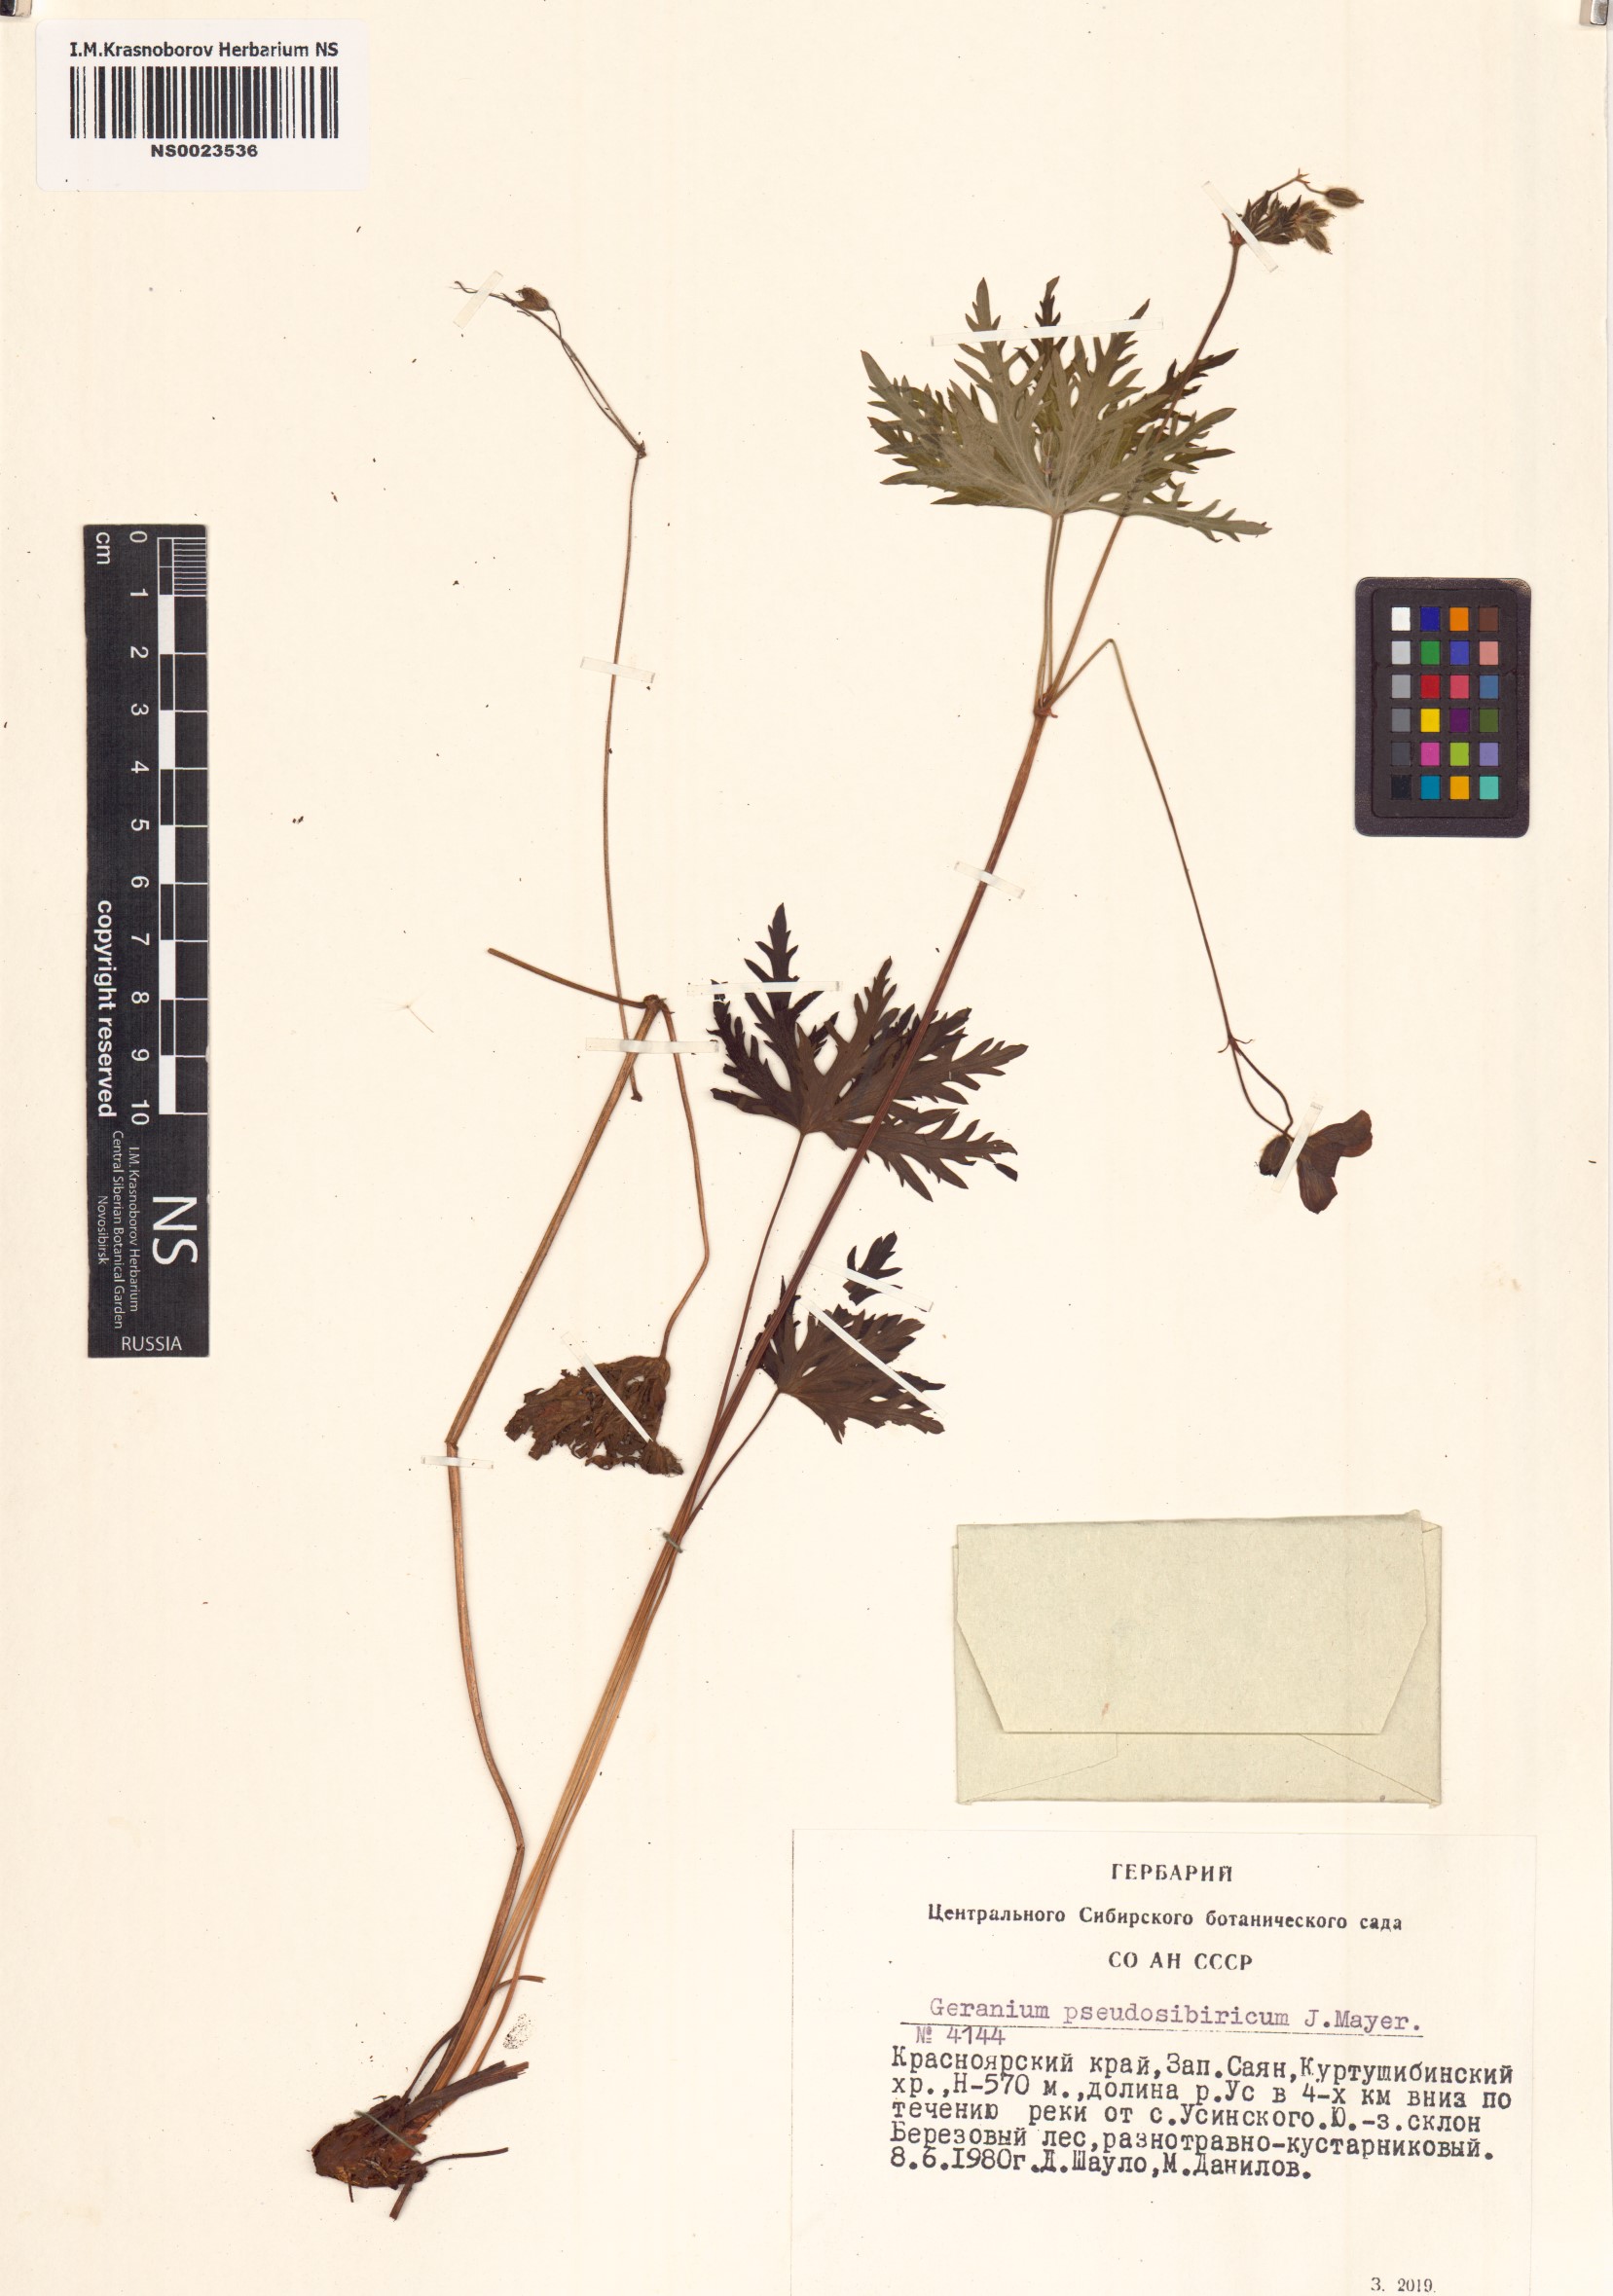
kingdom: Plantae
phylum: Tracheophyta
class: Magnoliopsida
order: Geraniales
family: Geraniaceae
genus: Geranium
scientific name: Geranium pseudosibiricum
